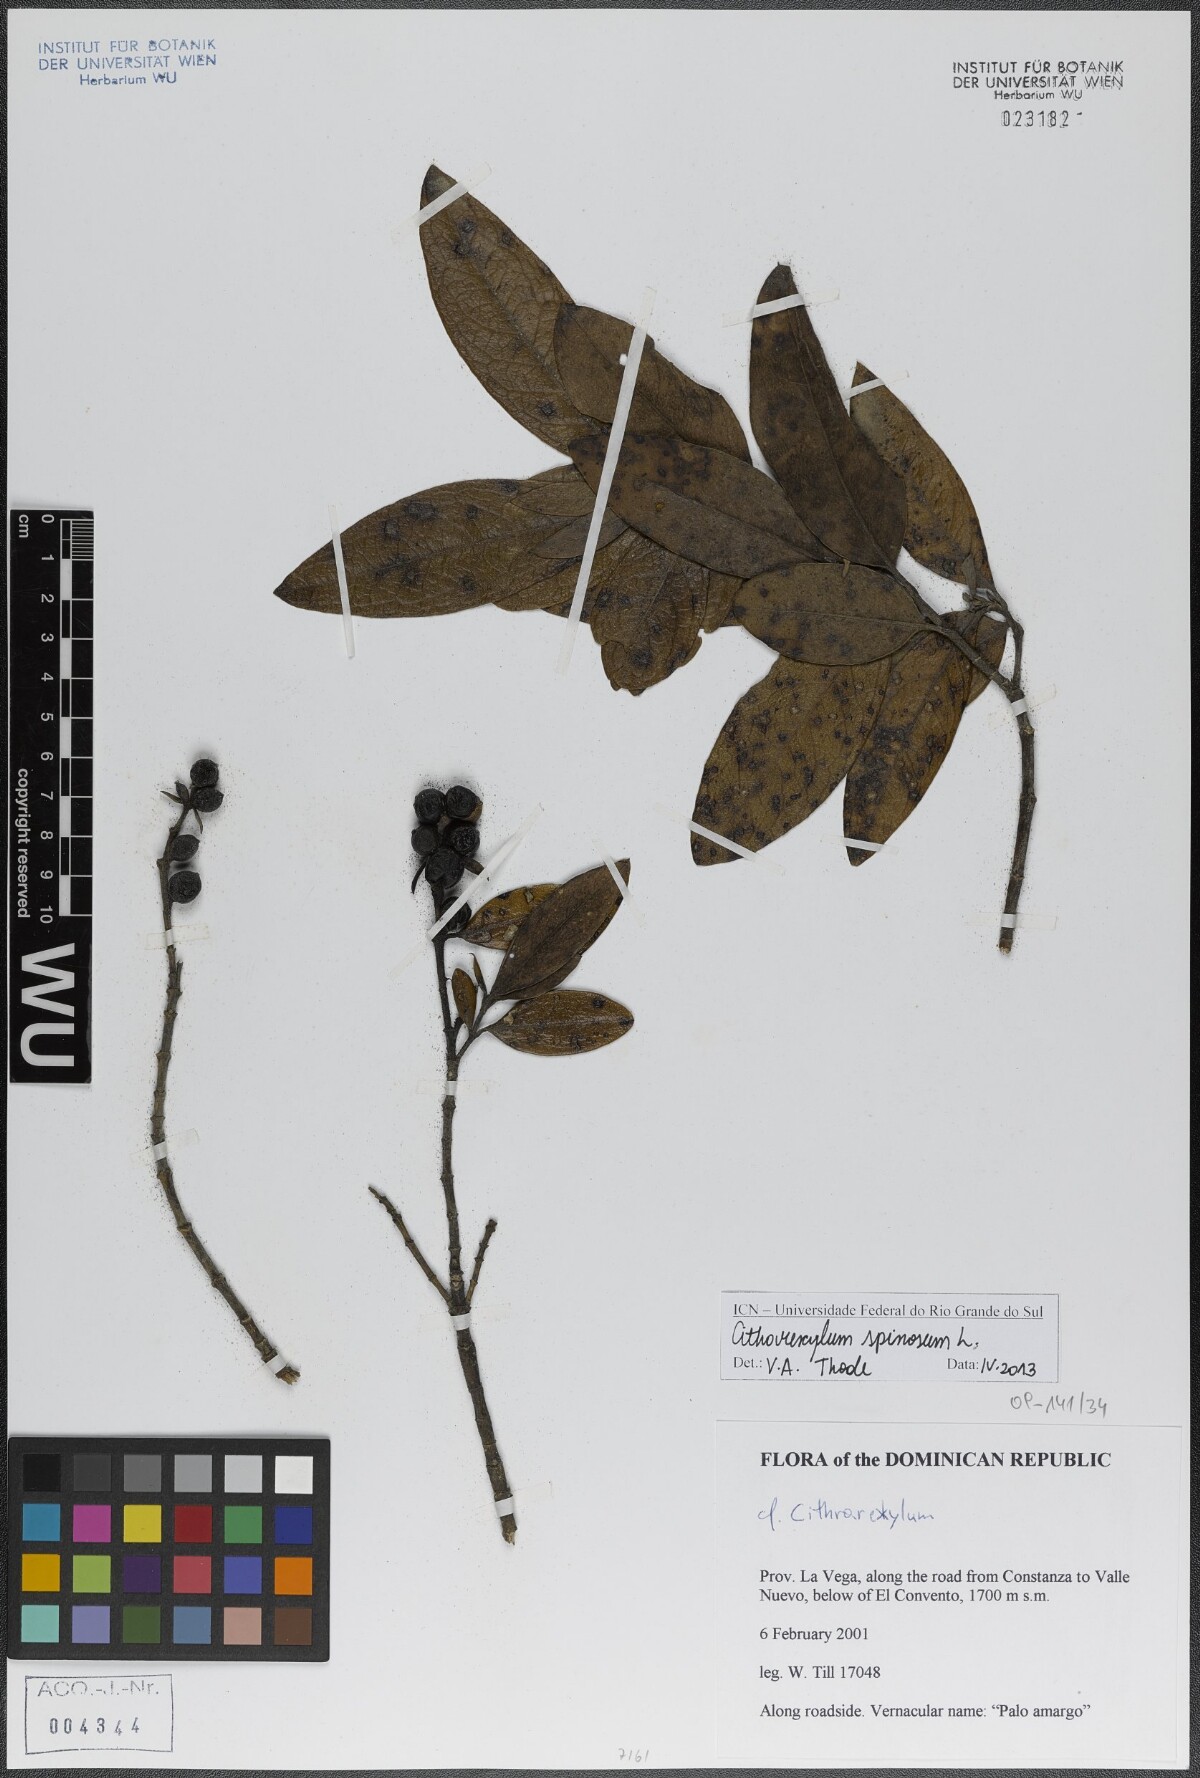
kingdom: Plantae
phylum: Tracheophyta
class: Magnoliopsida
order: Lamiales
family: Verbenaceae
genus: Citharexylum
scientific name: Citharexylum spinosum
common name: Fiddlewood
